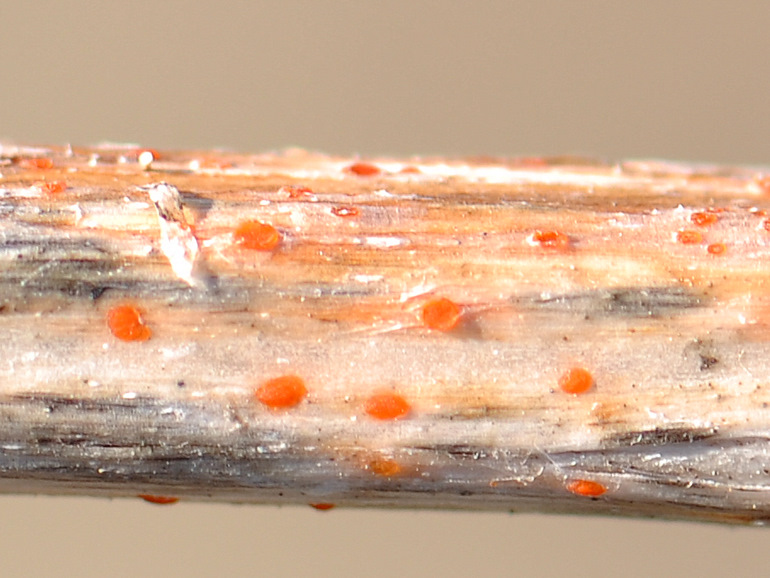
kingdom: Fungi
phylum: Ascomycota
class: Leotiomycetes
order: Helotiales
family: Calloriaceae
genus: Calloria
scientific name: Calloria urticae
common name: nælde-orangeskive
